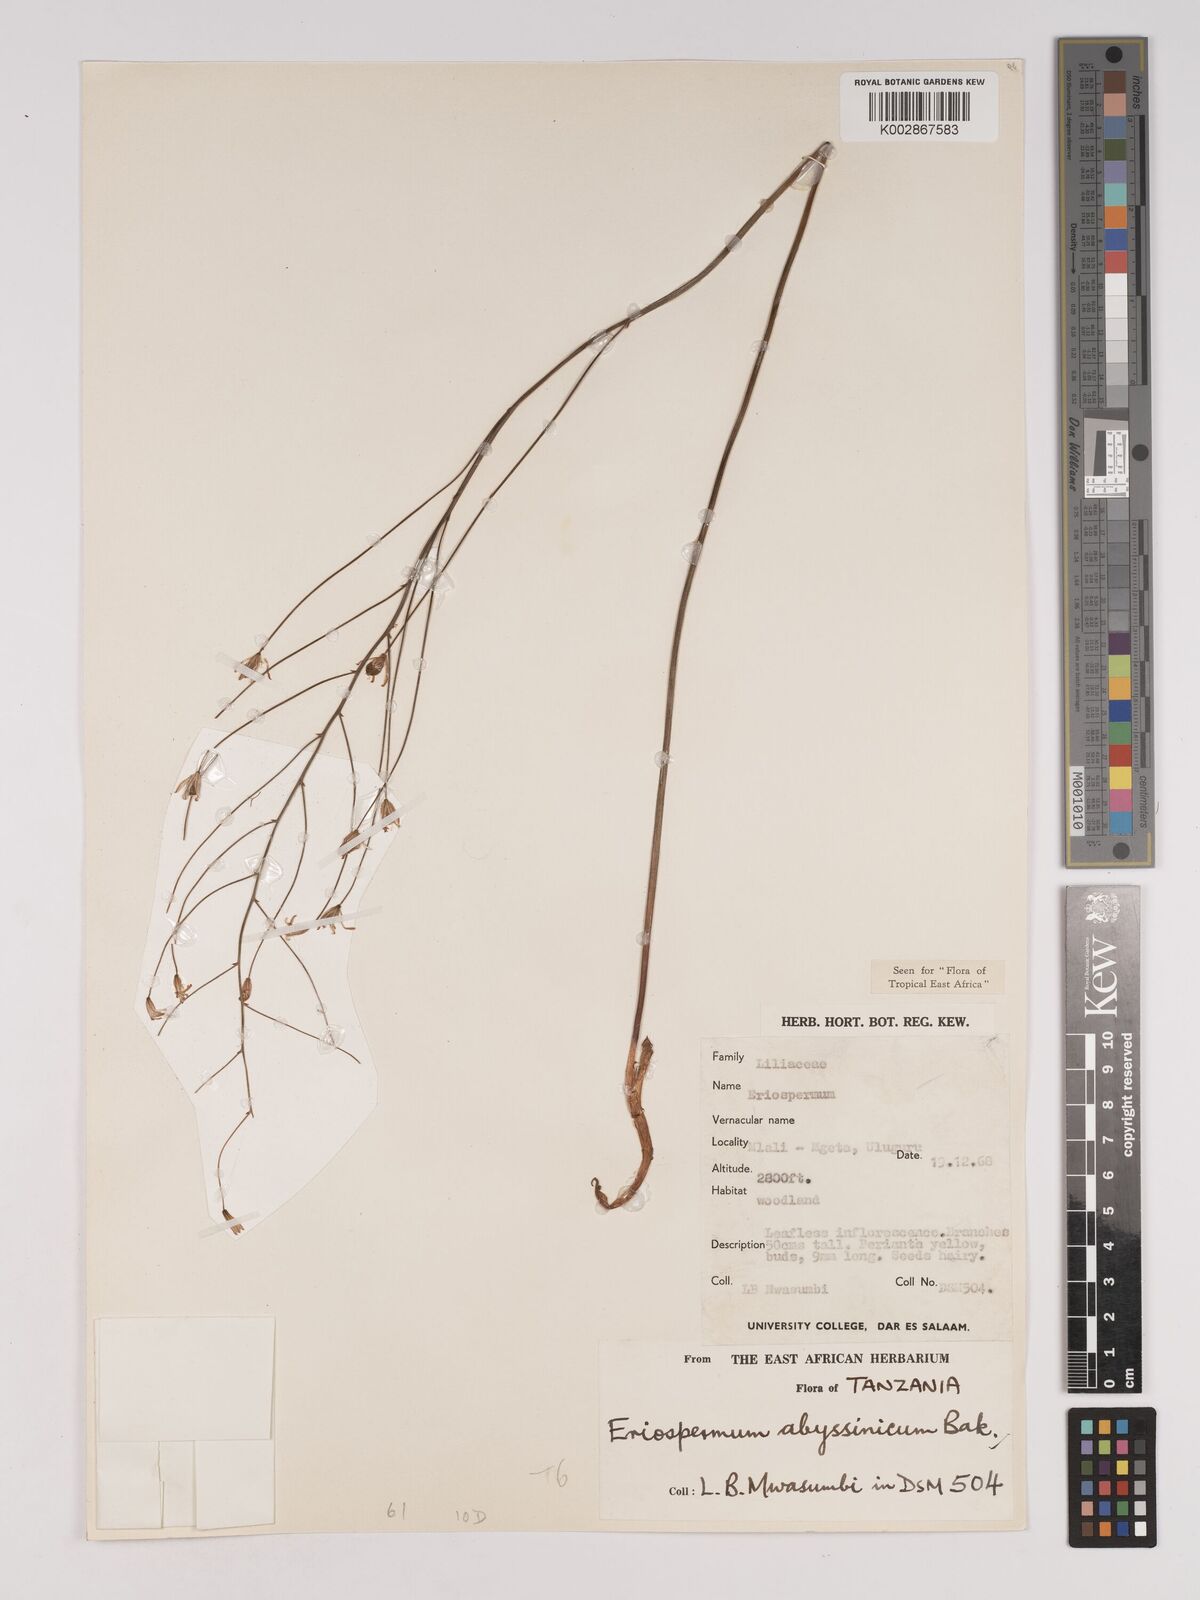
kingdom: Plantae
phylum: Tracheophyta
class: Liliopsida
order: Asparagales
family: Asparagaceae
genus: Eriospermum
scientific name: Eriospermum abyssinicum
